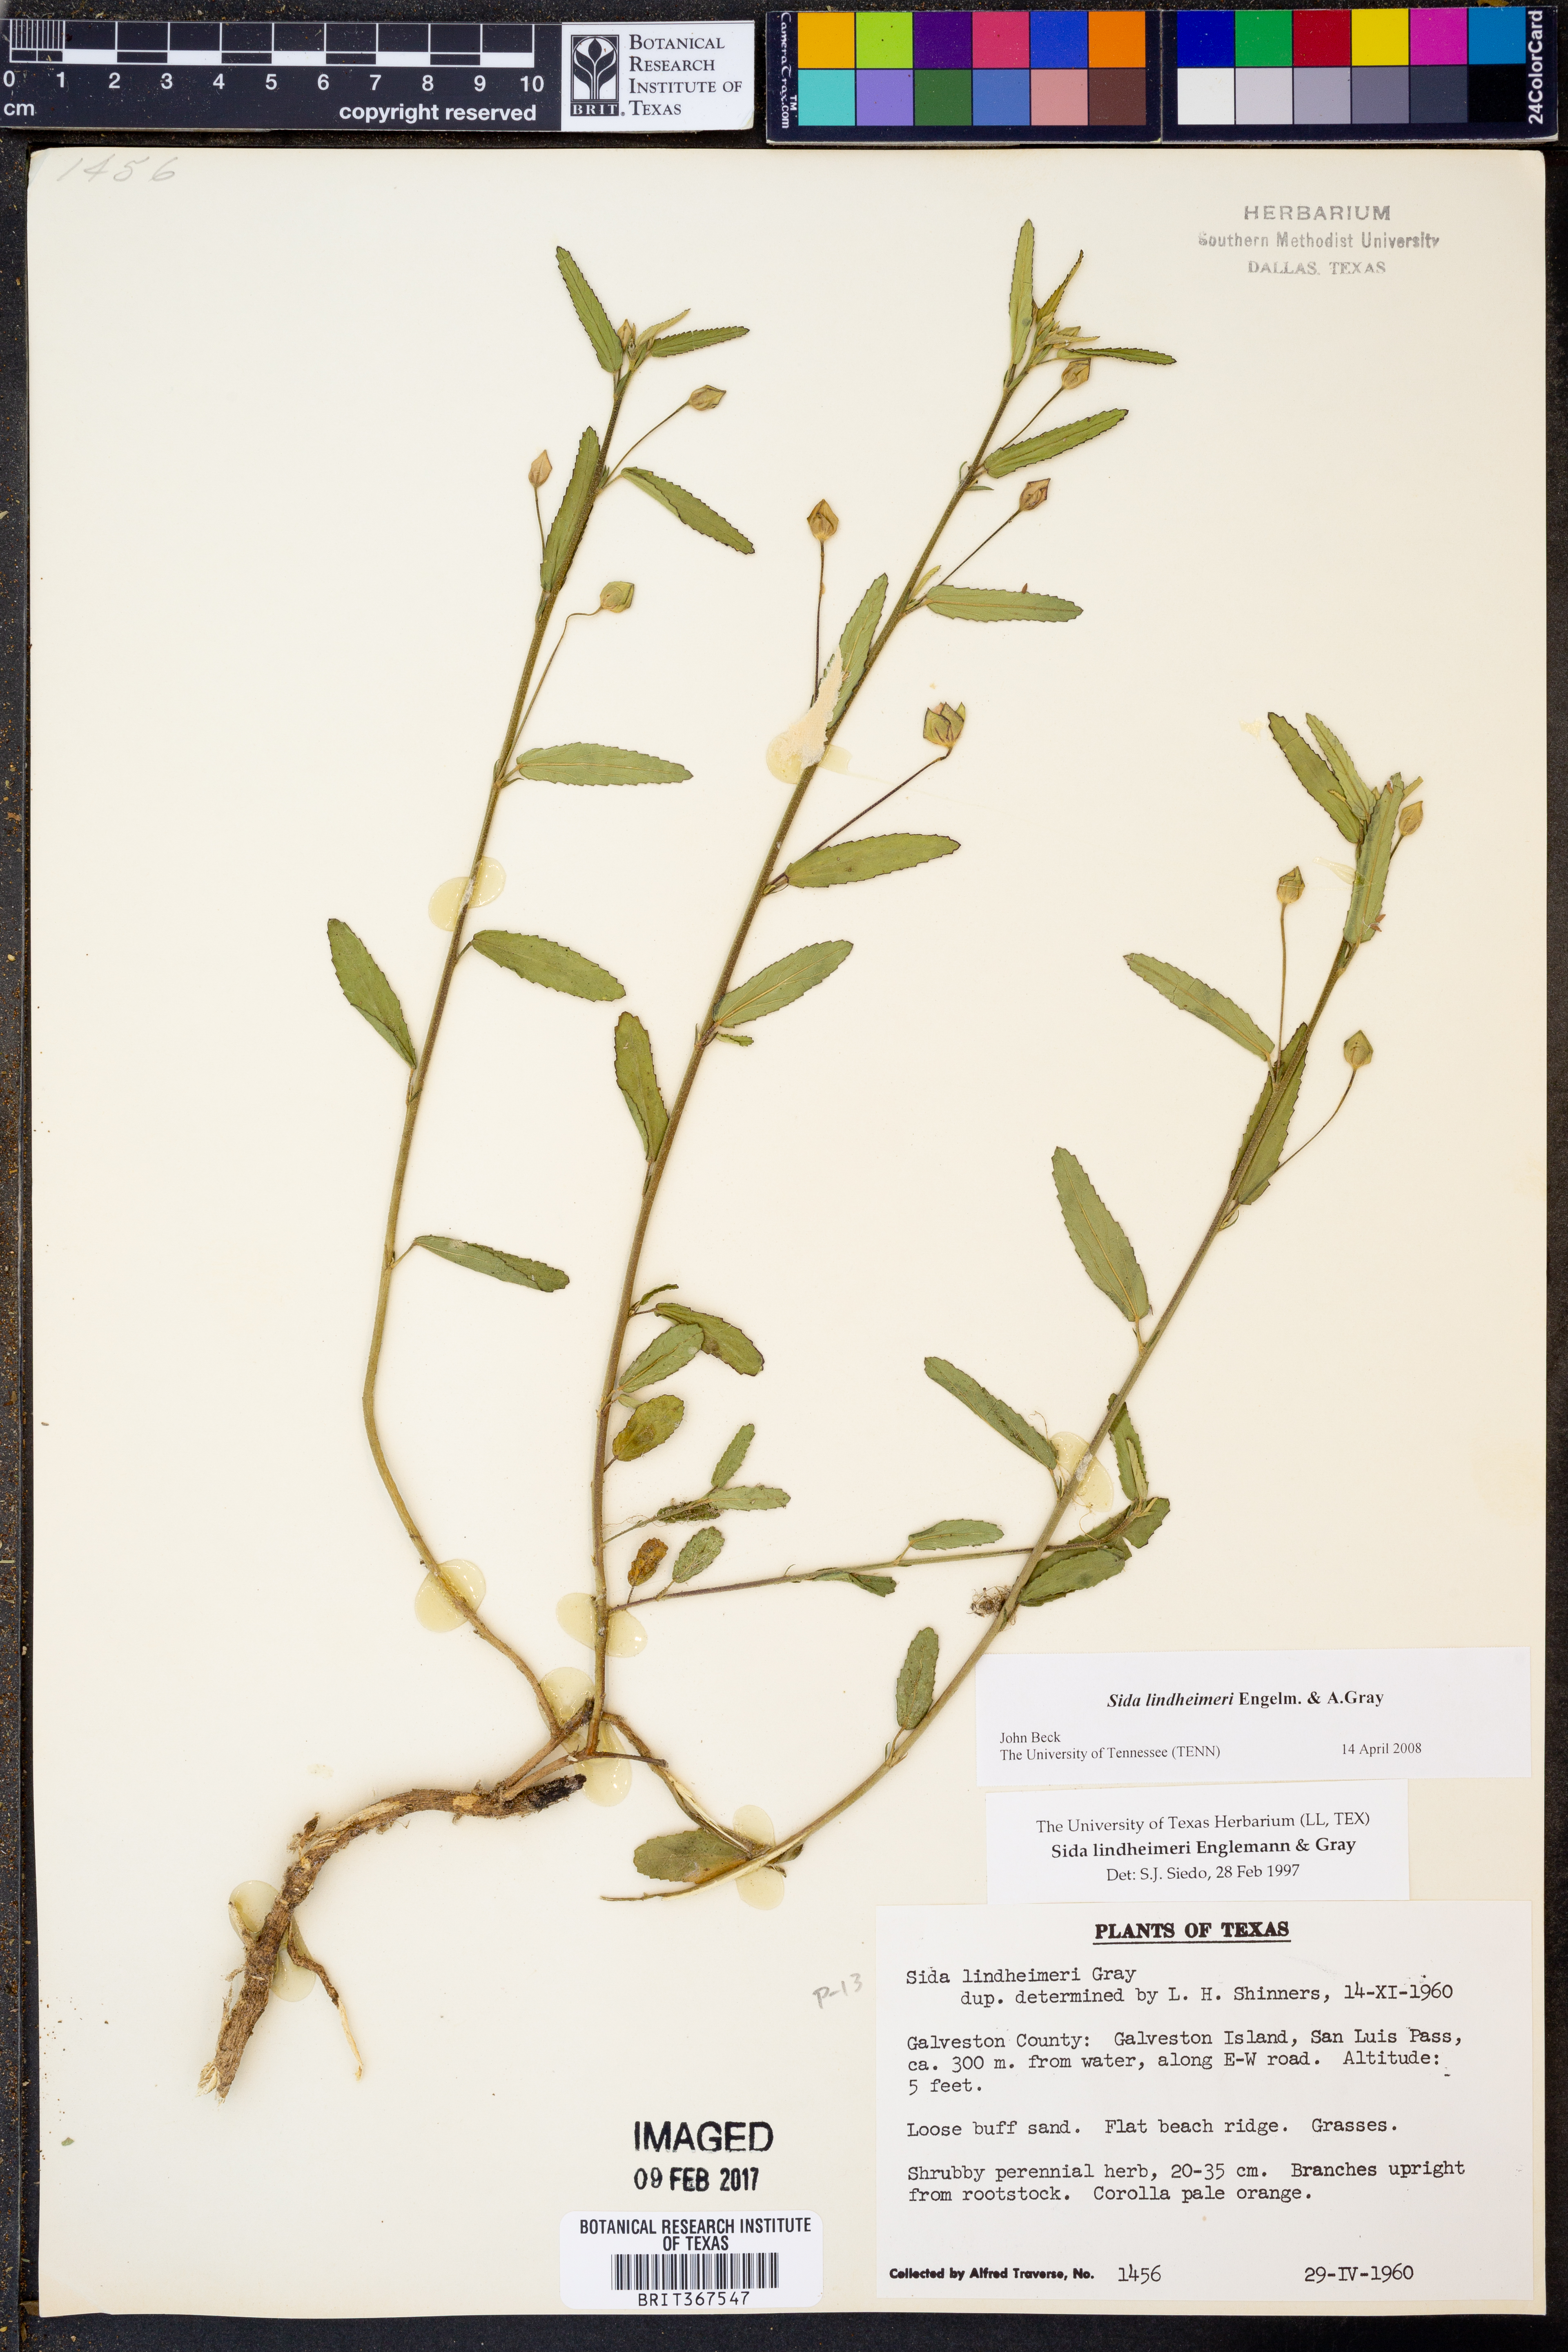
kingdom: Plantae
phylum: Tracheophyta
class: Magnoliopsida
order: Malvales
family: Malvaceae
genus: Sida
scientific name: Sida lindheimeri
